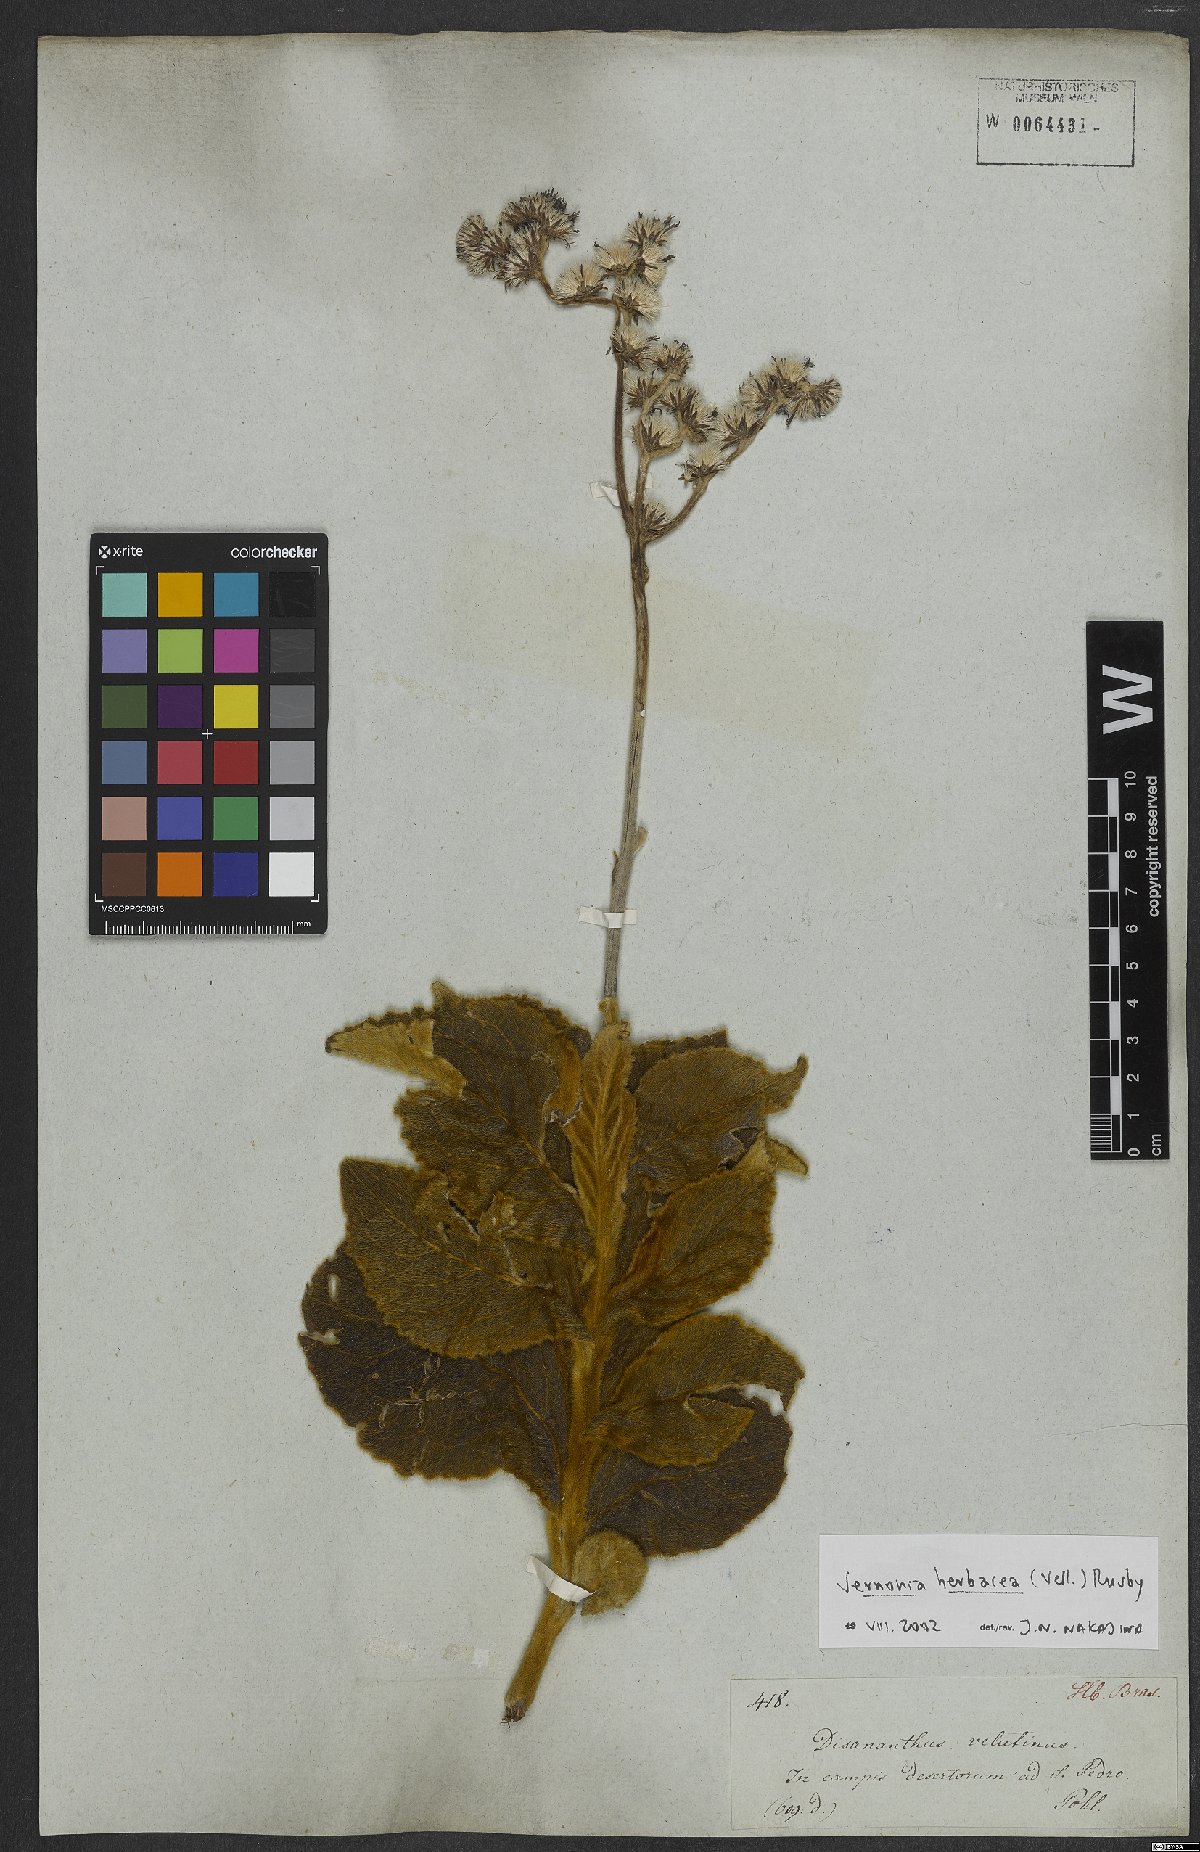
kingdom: Plantae
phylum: Tracheophyta
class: Magnoliopsida
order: Asterales
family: Asteraceae
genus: Chrysolaena
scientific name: Chrysolaena obovata
